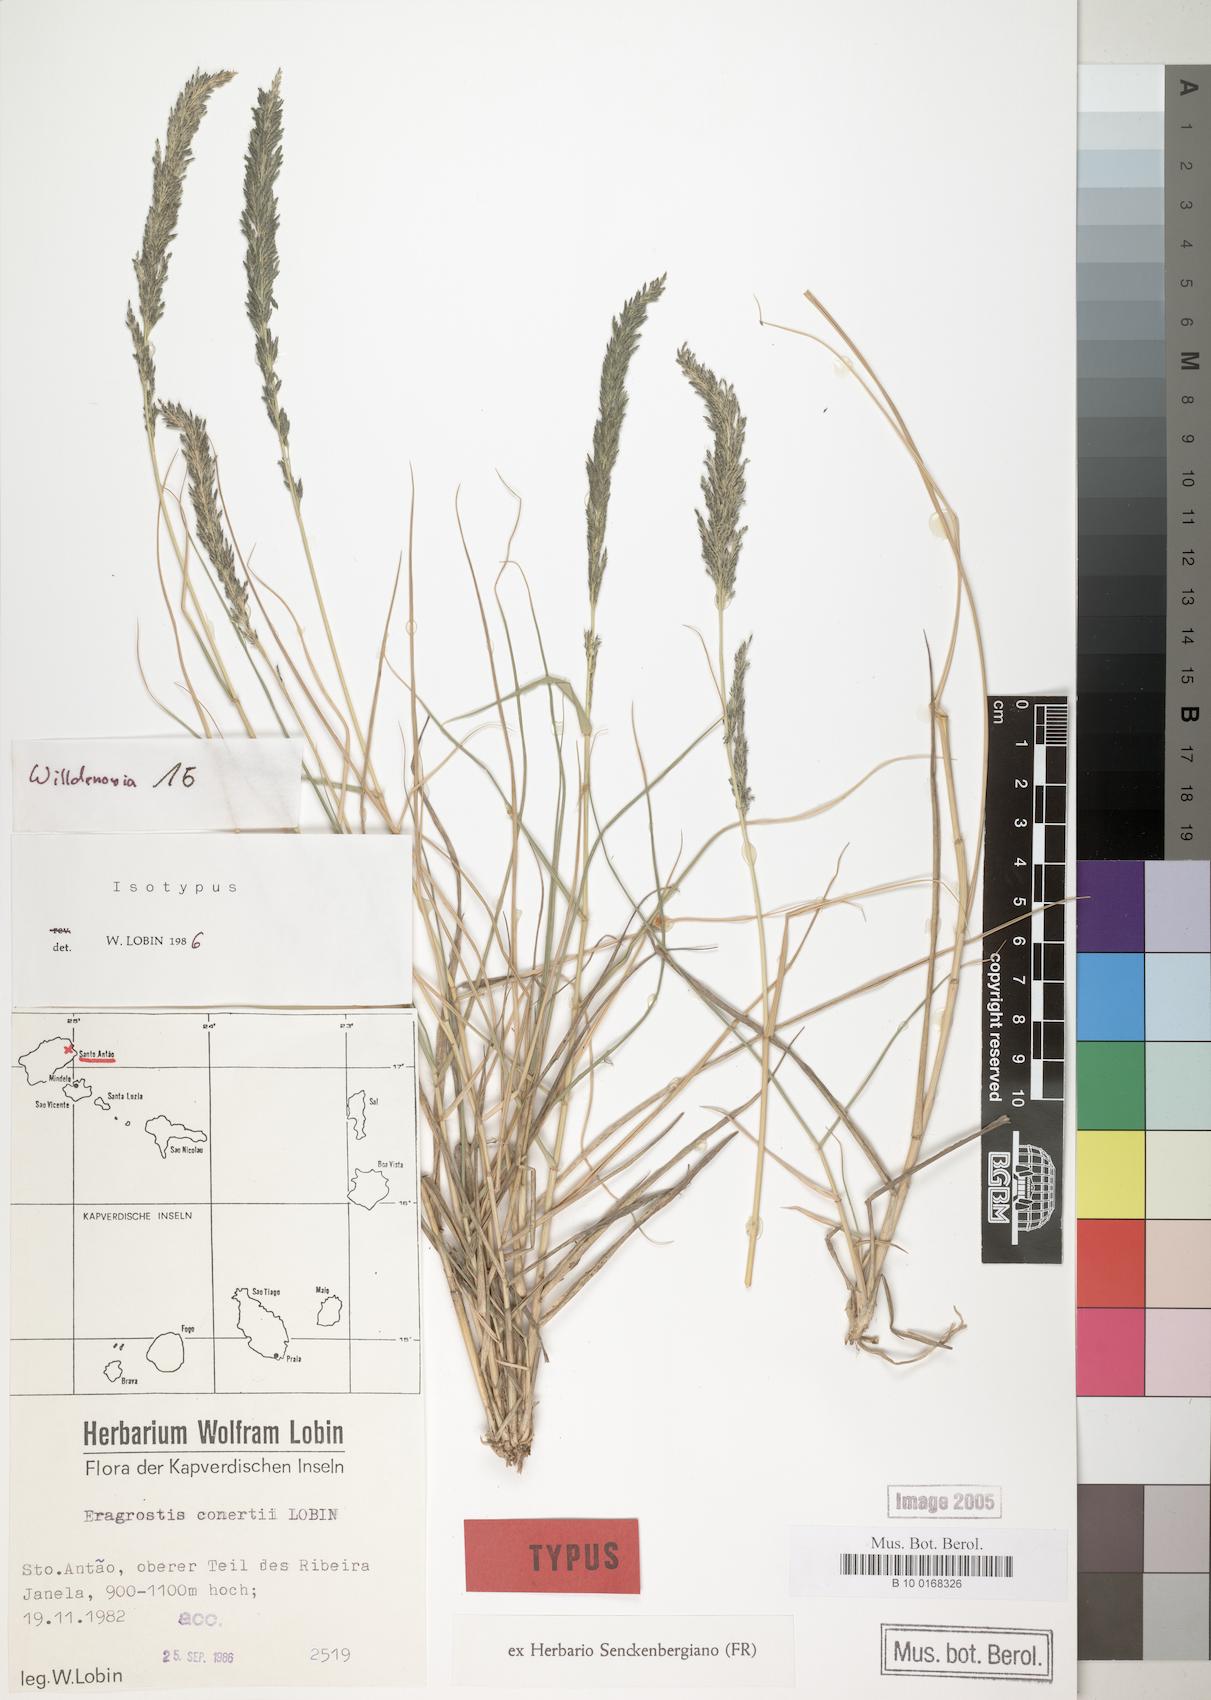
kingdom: Plantae
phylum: Tracheophyta
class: Liliopsida
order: Poales
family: Poaceae
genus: Eragrostis
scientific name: Eragrostis conertii
